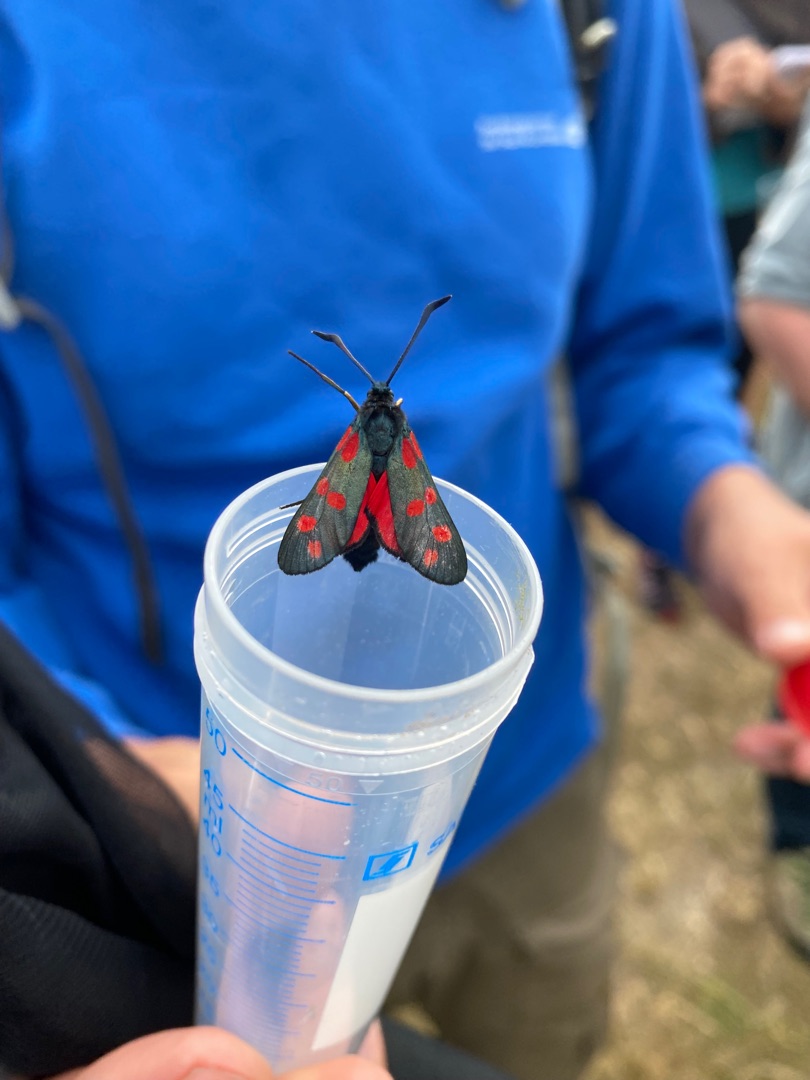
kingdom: Animalia
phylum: Arthropoda
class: Insecta
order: Lepidoptera
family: Zygaenidae
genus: Zygaena
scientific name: Zygaena filipendulae
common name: Seksplettet køllesværmer
